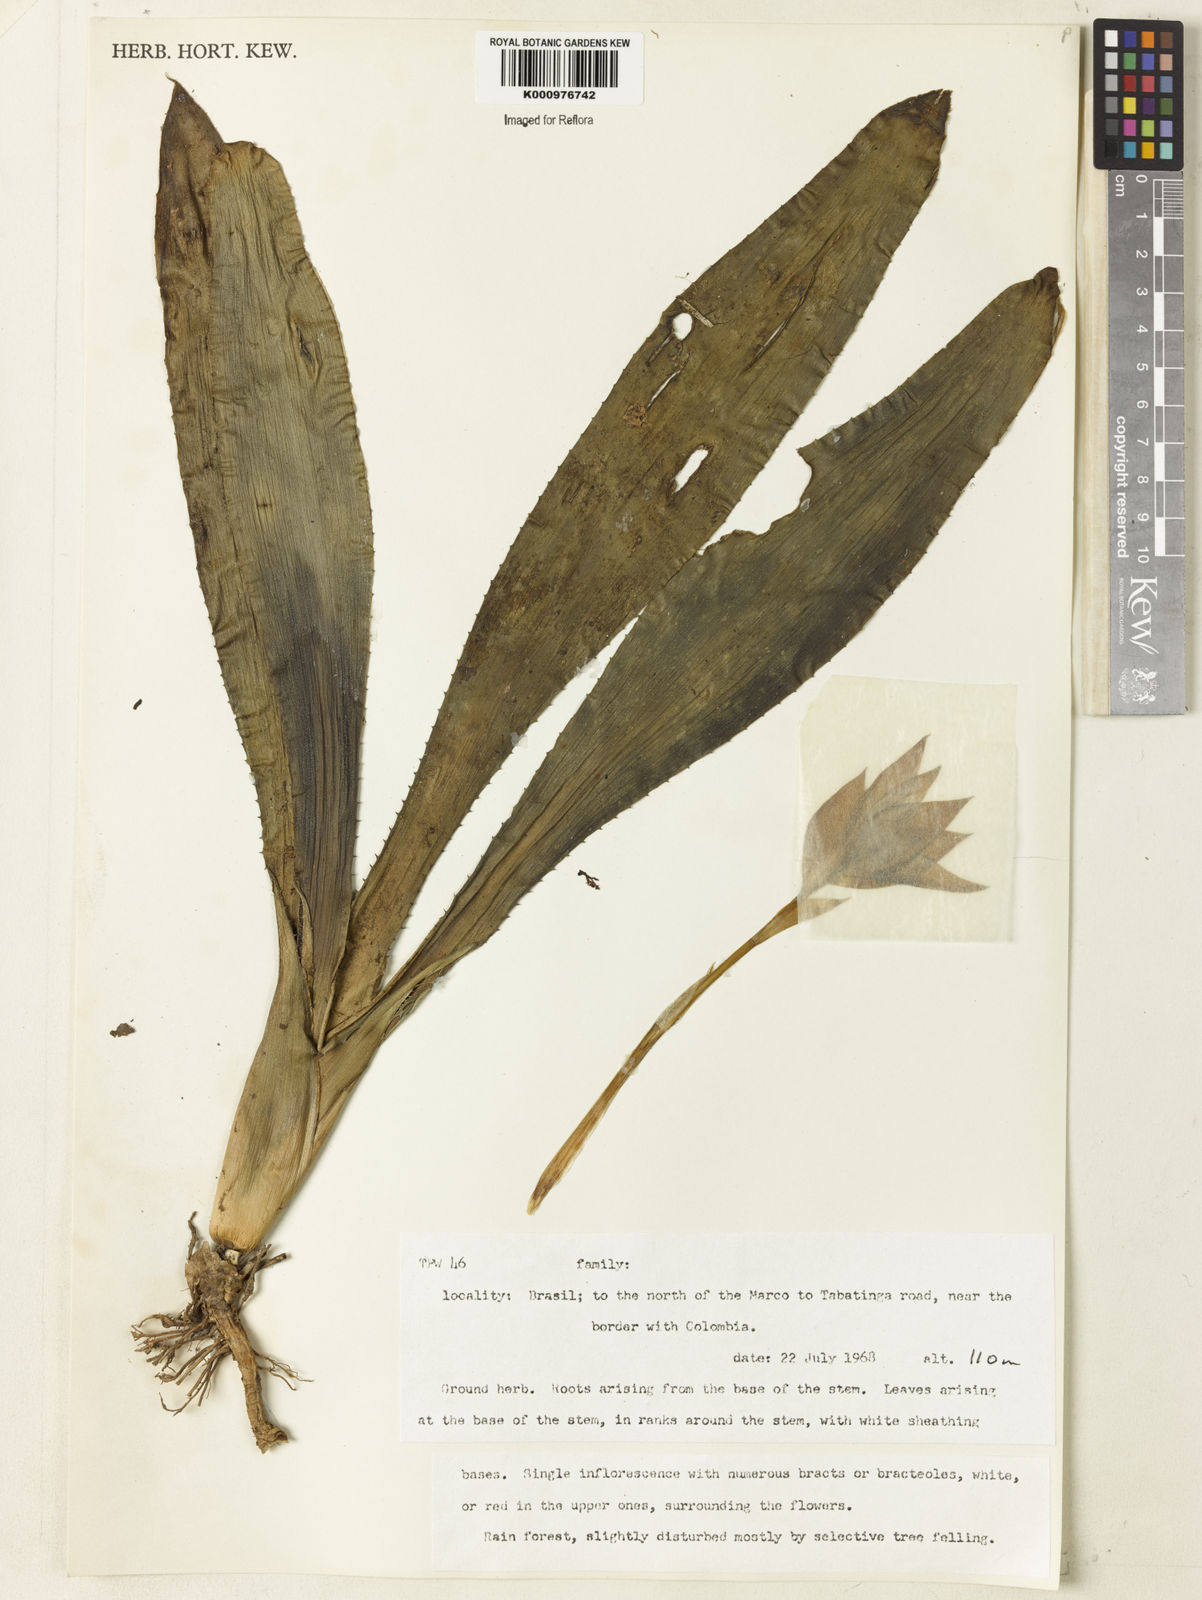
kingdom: Plantae
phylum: Tracheophyta
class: Liliopsida
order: Poales
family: Bromeliaceae
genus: Billbergia
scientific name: Billbergia
